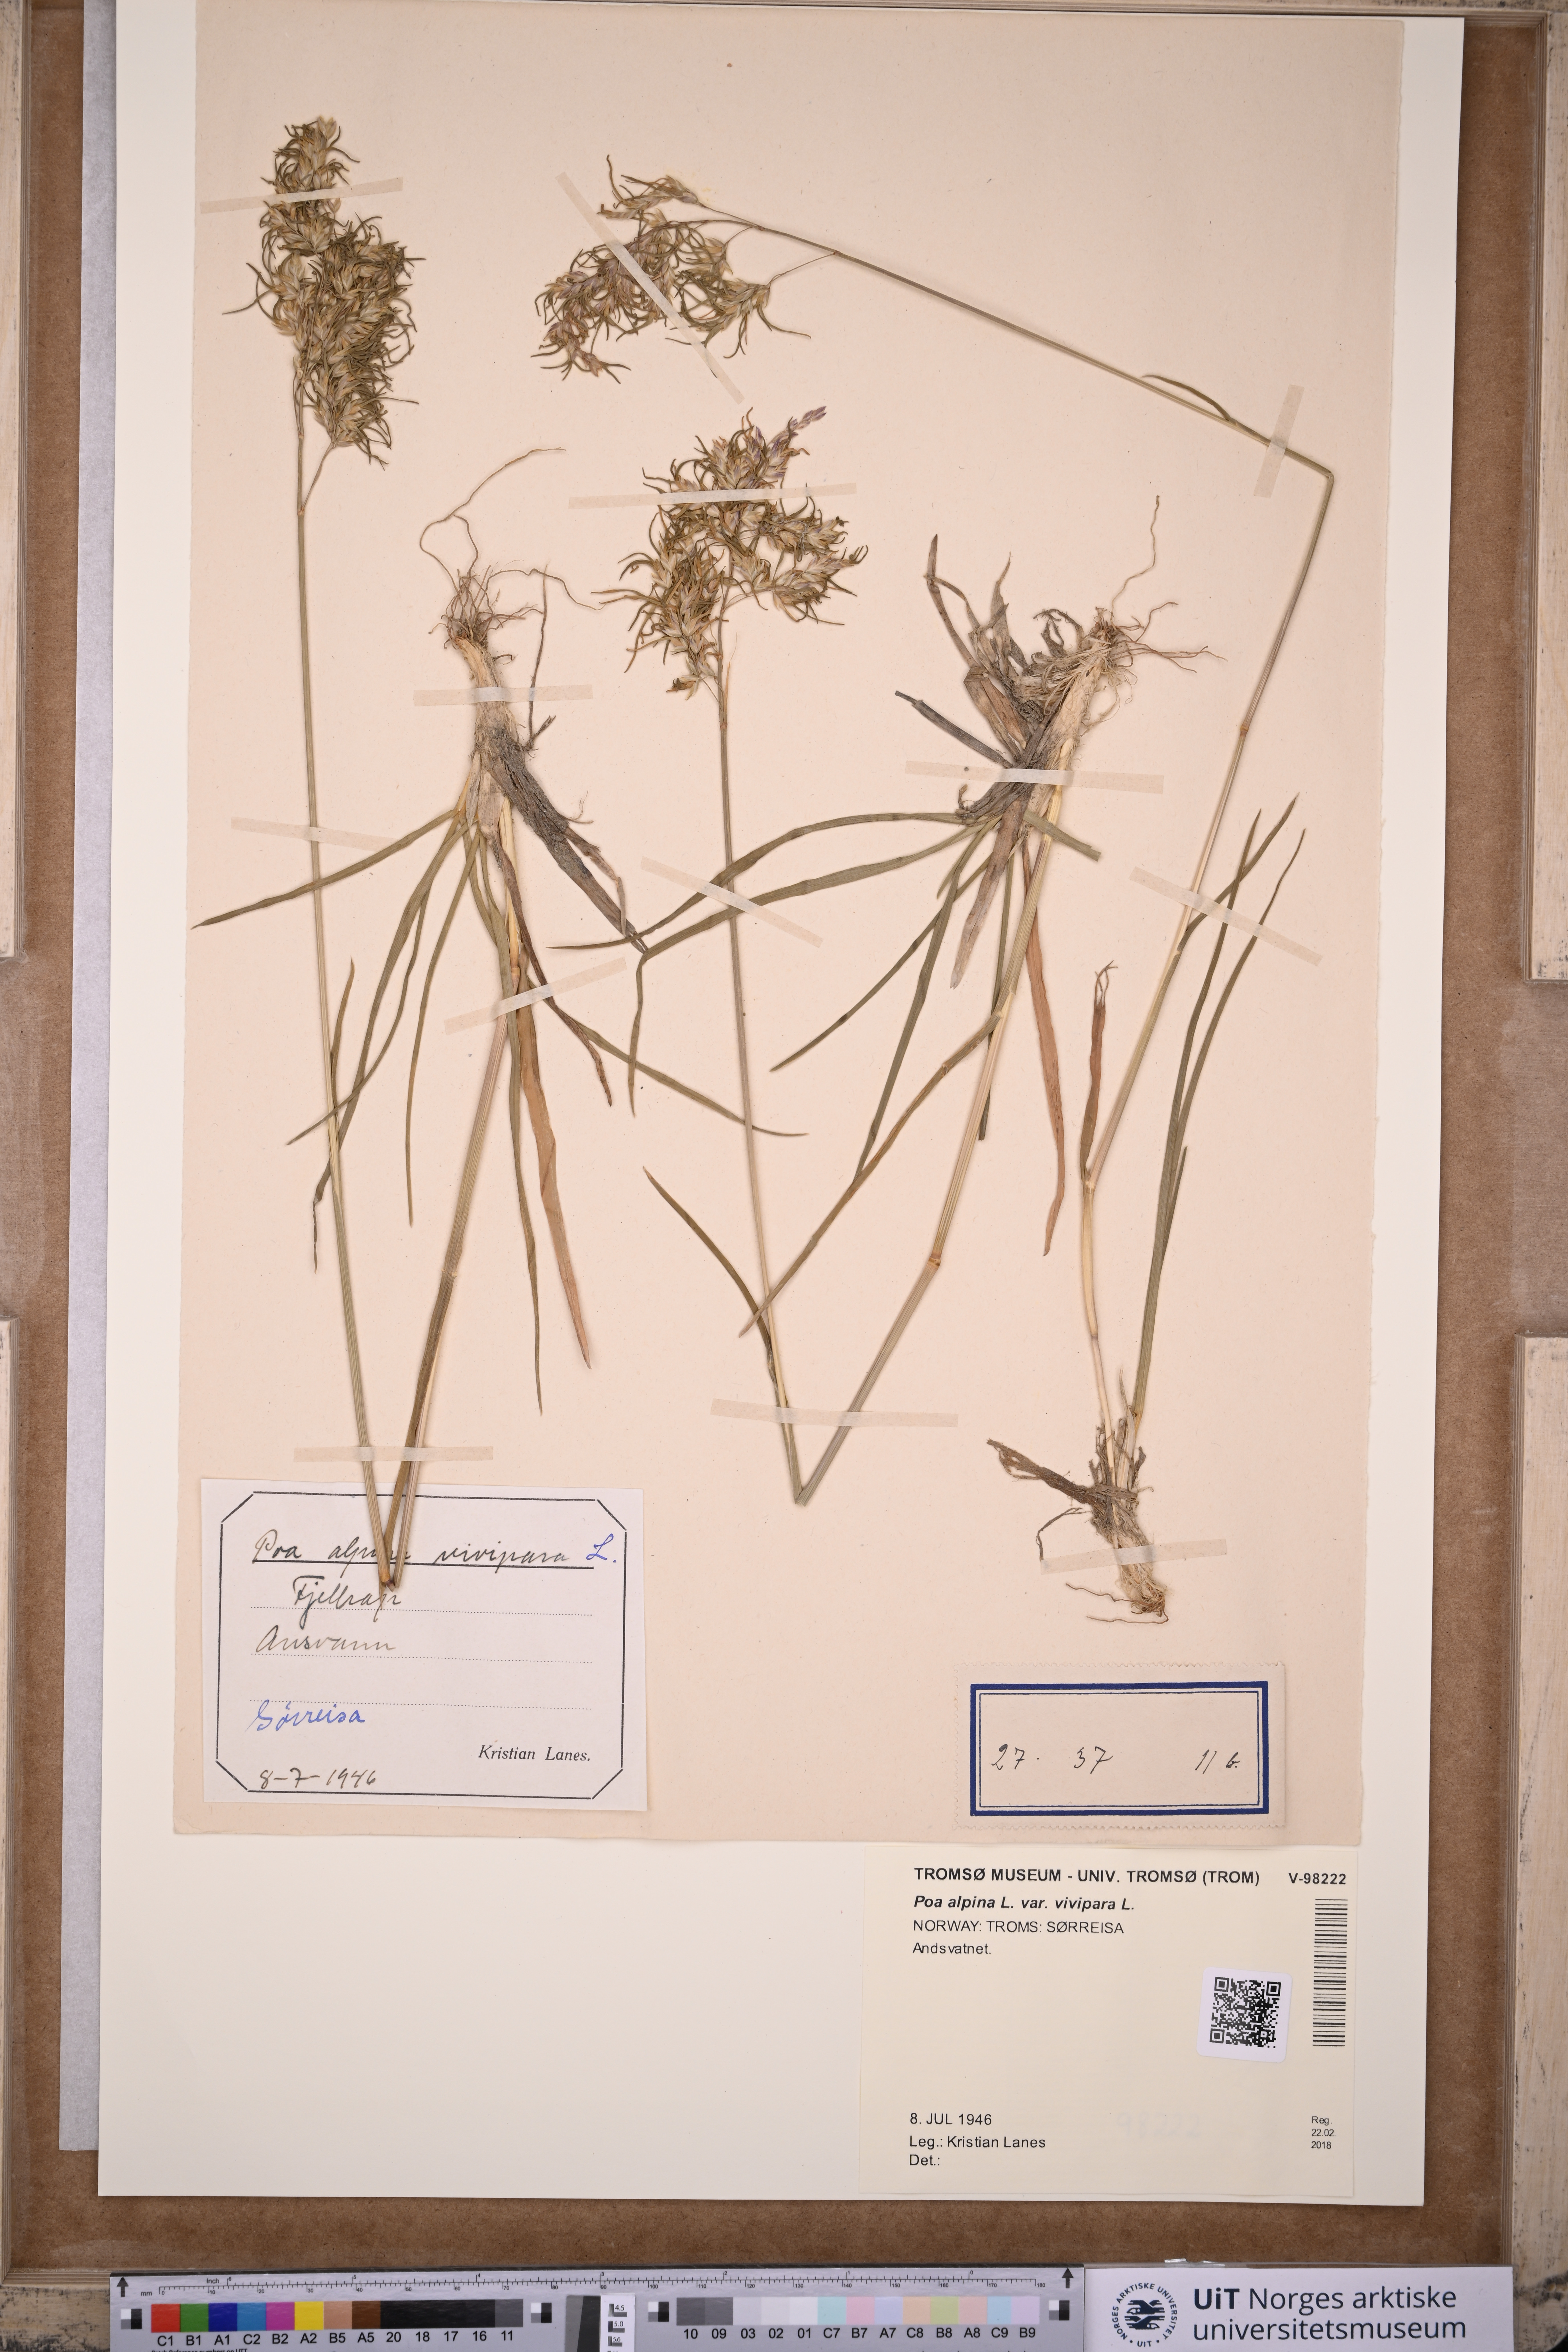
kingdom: Plantae
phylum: Tracheophyta
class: Liliopsida
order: Poales
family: Poaceae
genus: Poa
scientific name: Poa alpina
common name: Alpine bluegrass
